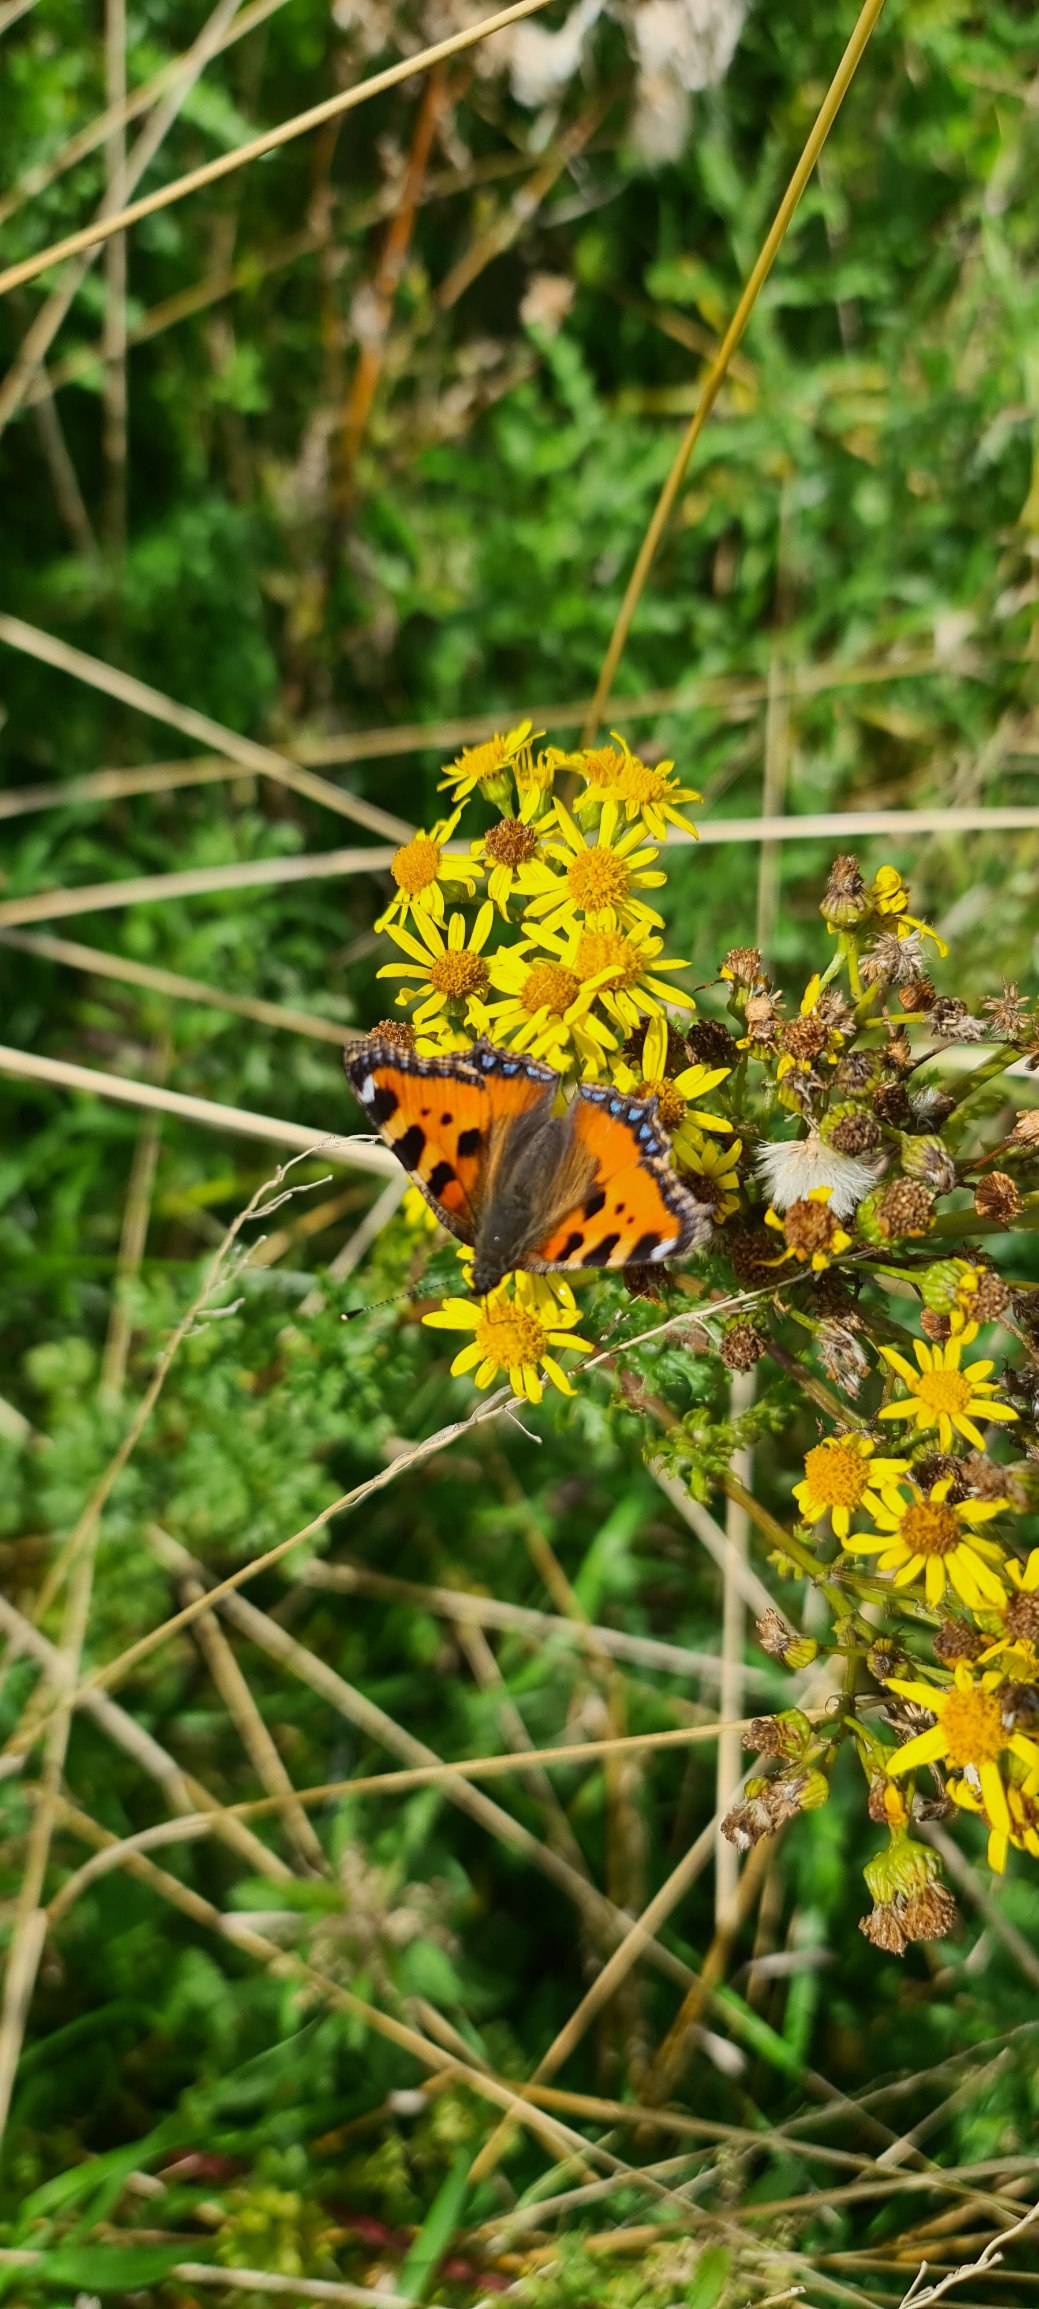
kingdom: Animalia
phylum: Arthropoda
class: Insecta
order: Lepidoptera
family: Nymphalidae
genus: Aglais
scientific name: Aglais urticae
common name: Nældens takvinge
